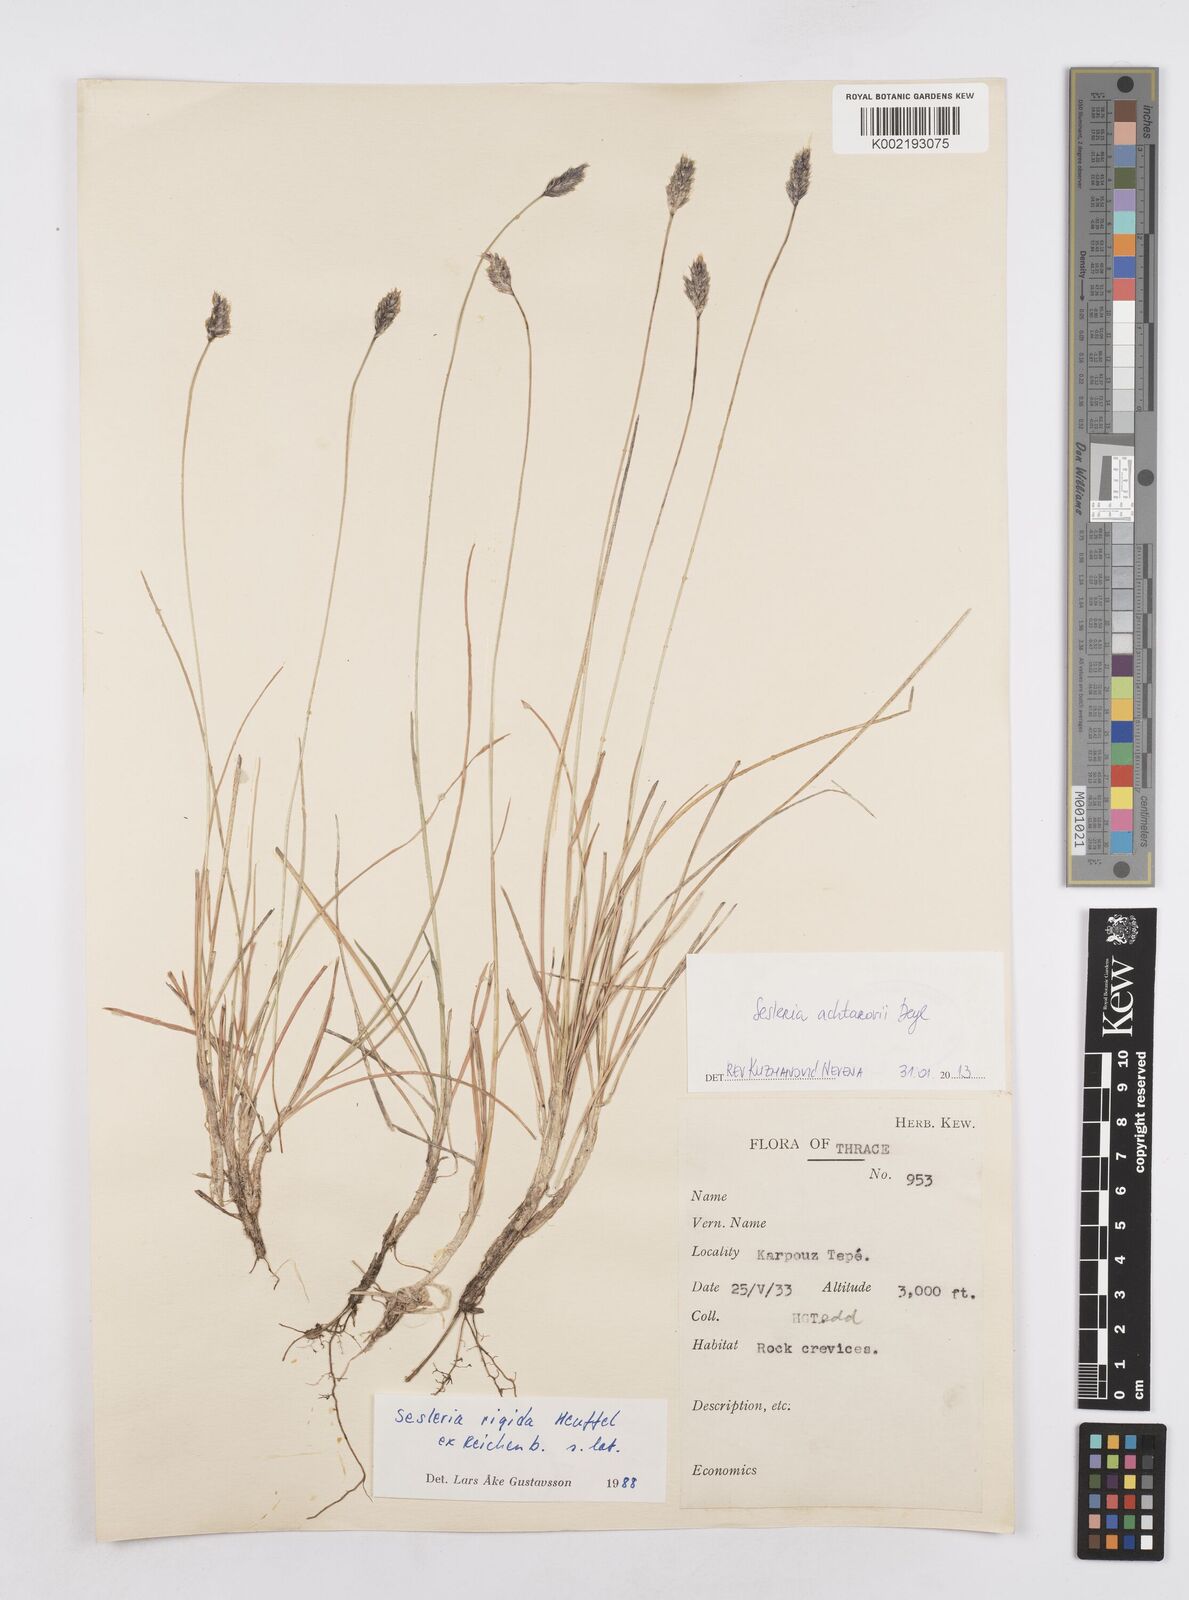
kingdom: Plantae
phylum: Tracheophyta
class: Liliopsida
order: Poales
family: Poaceae
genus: Sesleria
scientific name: Sesleria achtarovii
